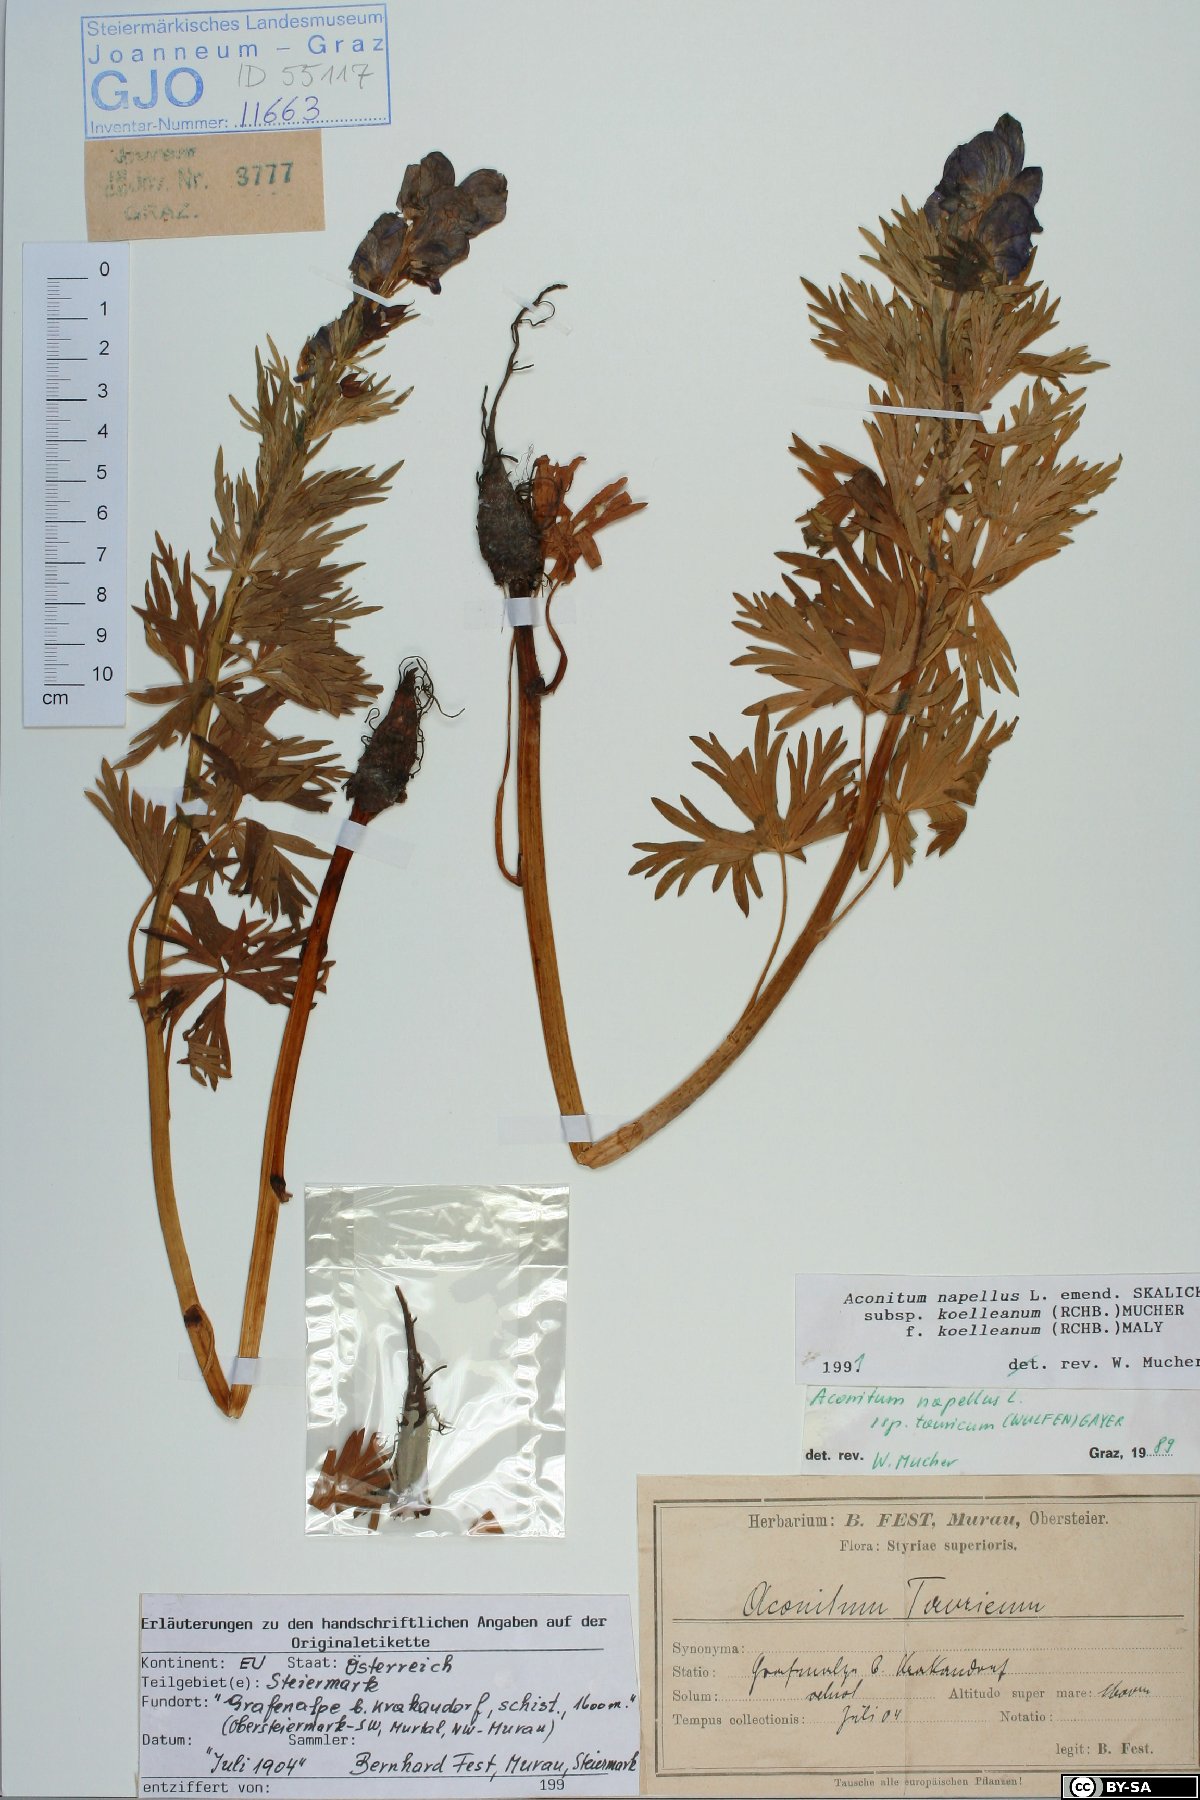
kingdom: Plantae
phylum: Tracheophyta
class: Magnoliopsida
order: Ranunculales
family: Ranunculaceae
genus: Aconitum
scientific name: Aconitum tauricum
